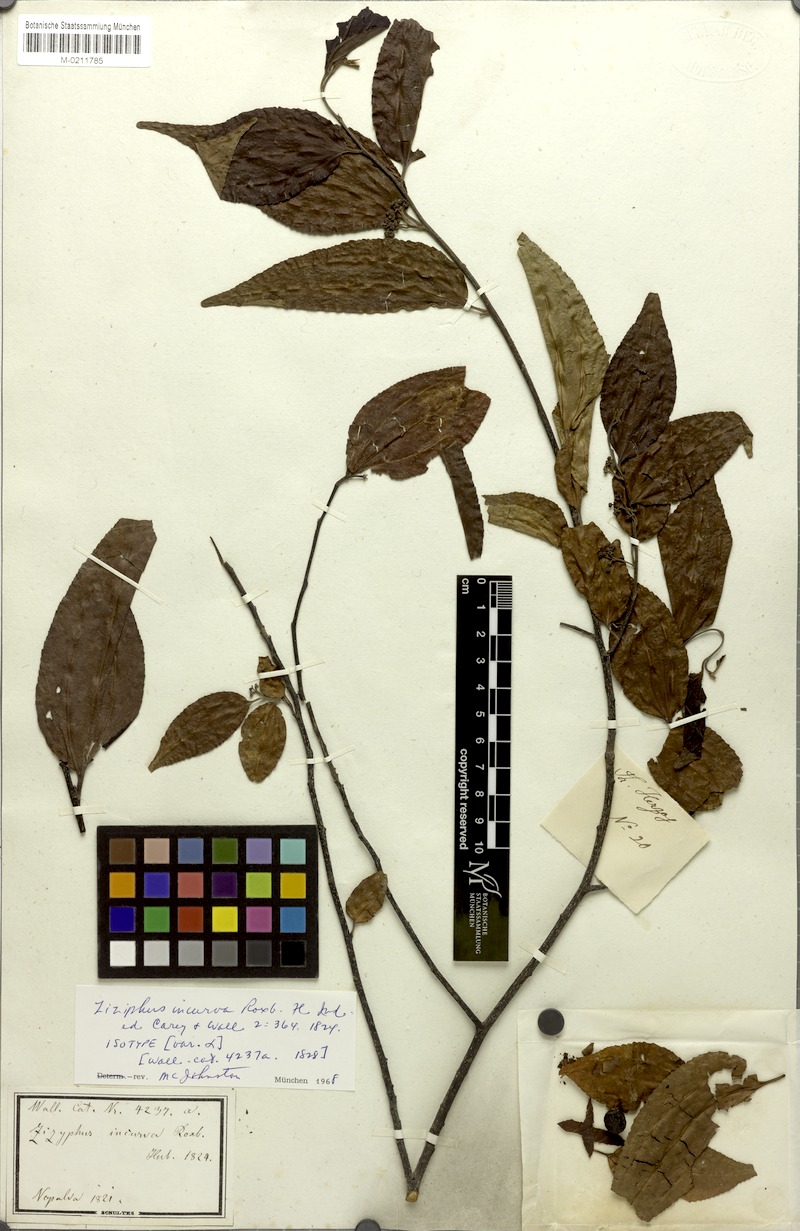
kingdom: Plantae
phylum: Tracheophyta
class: Magnoliopsida
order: Rosales
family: Rhamnaceae
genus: Ziziphus
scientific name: Ziziphus incurva
